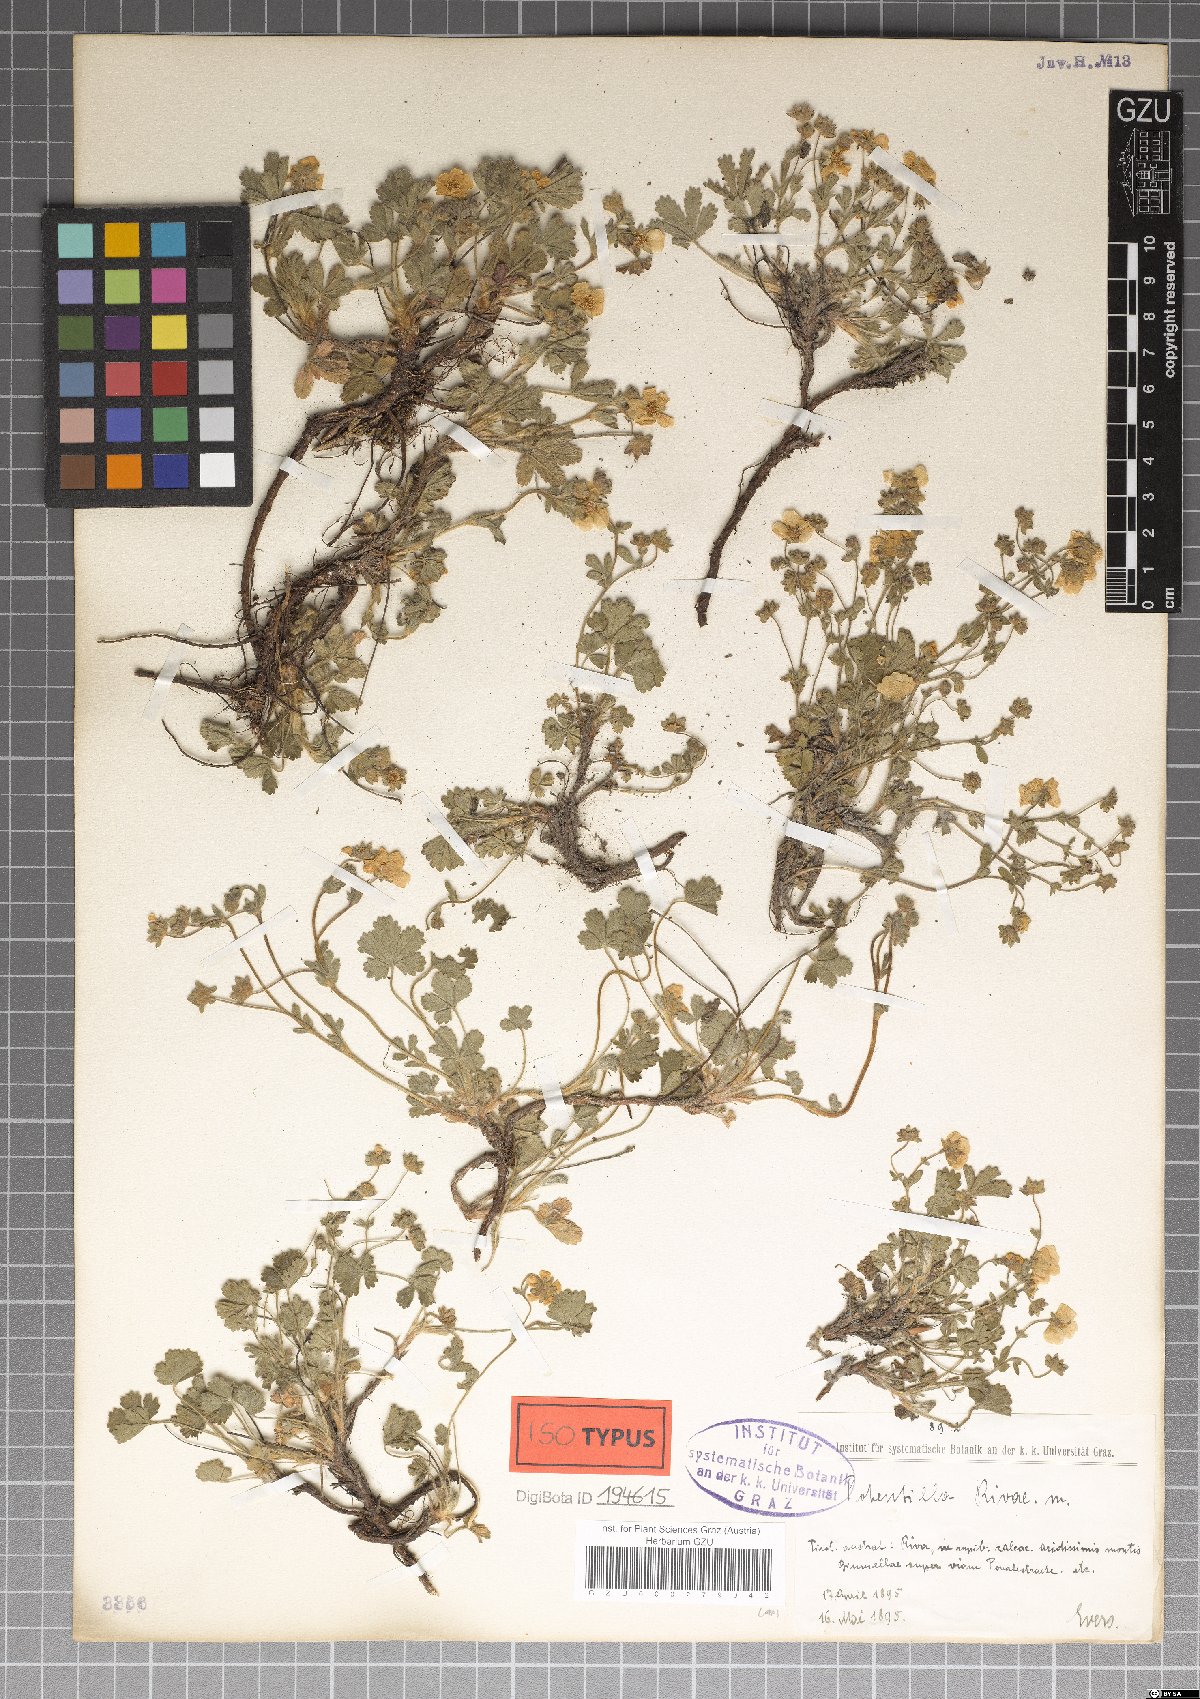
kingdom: Plantae
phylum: Tracheophyta
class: Magnoliopsida
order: Rosales
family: Rosaceae
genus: Potentilla
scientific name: Potentilla pusilla
